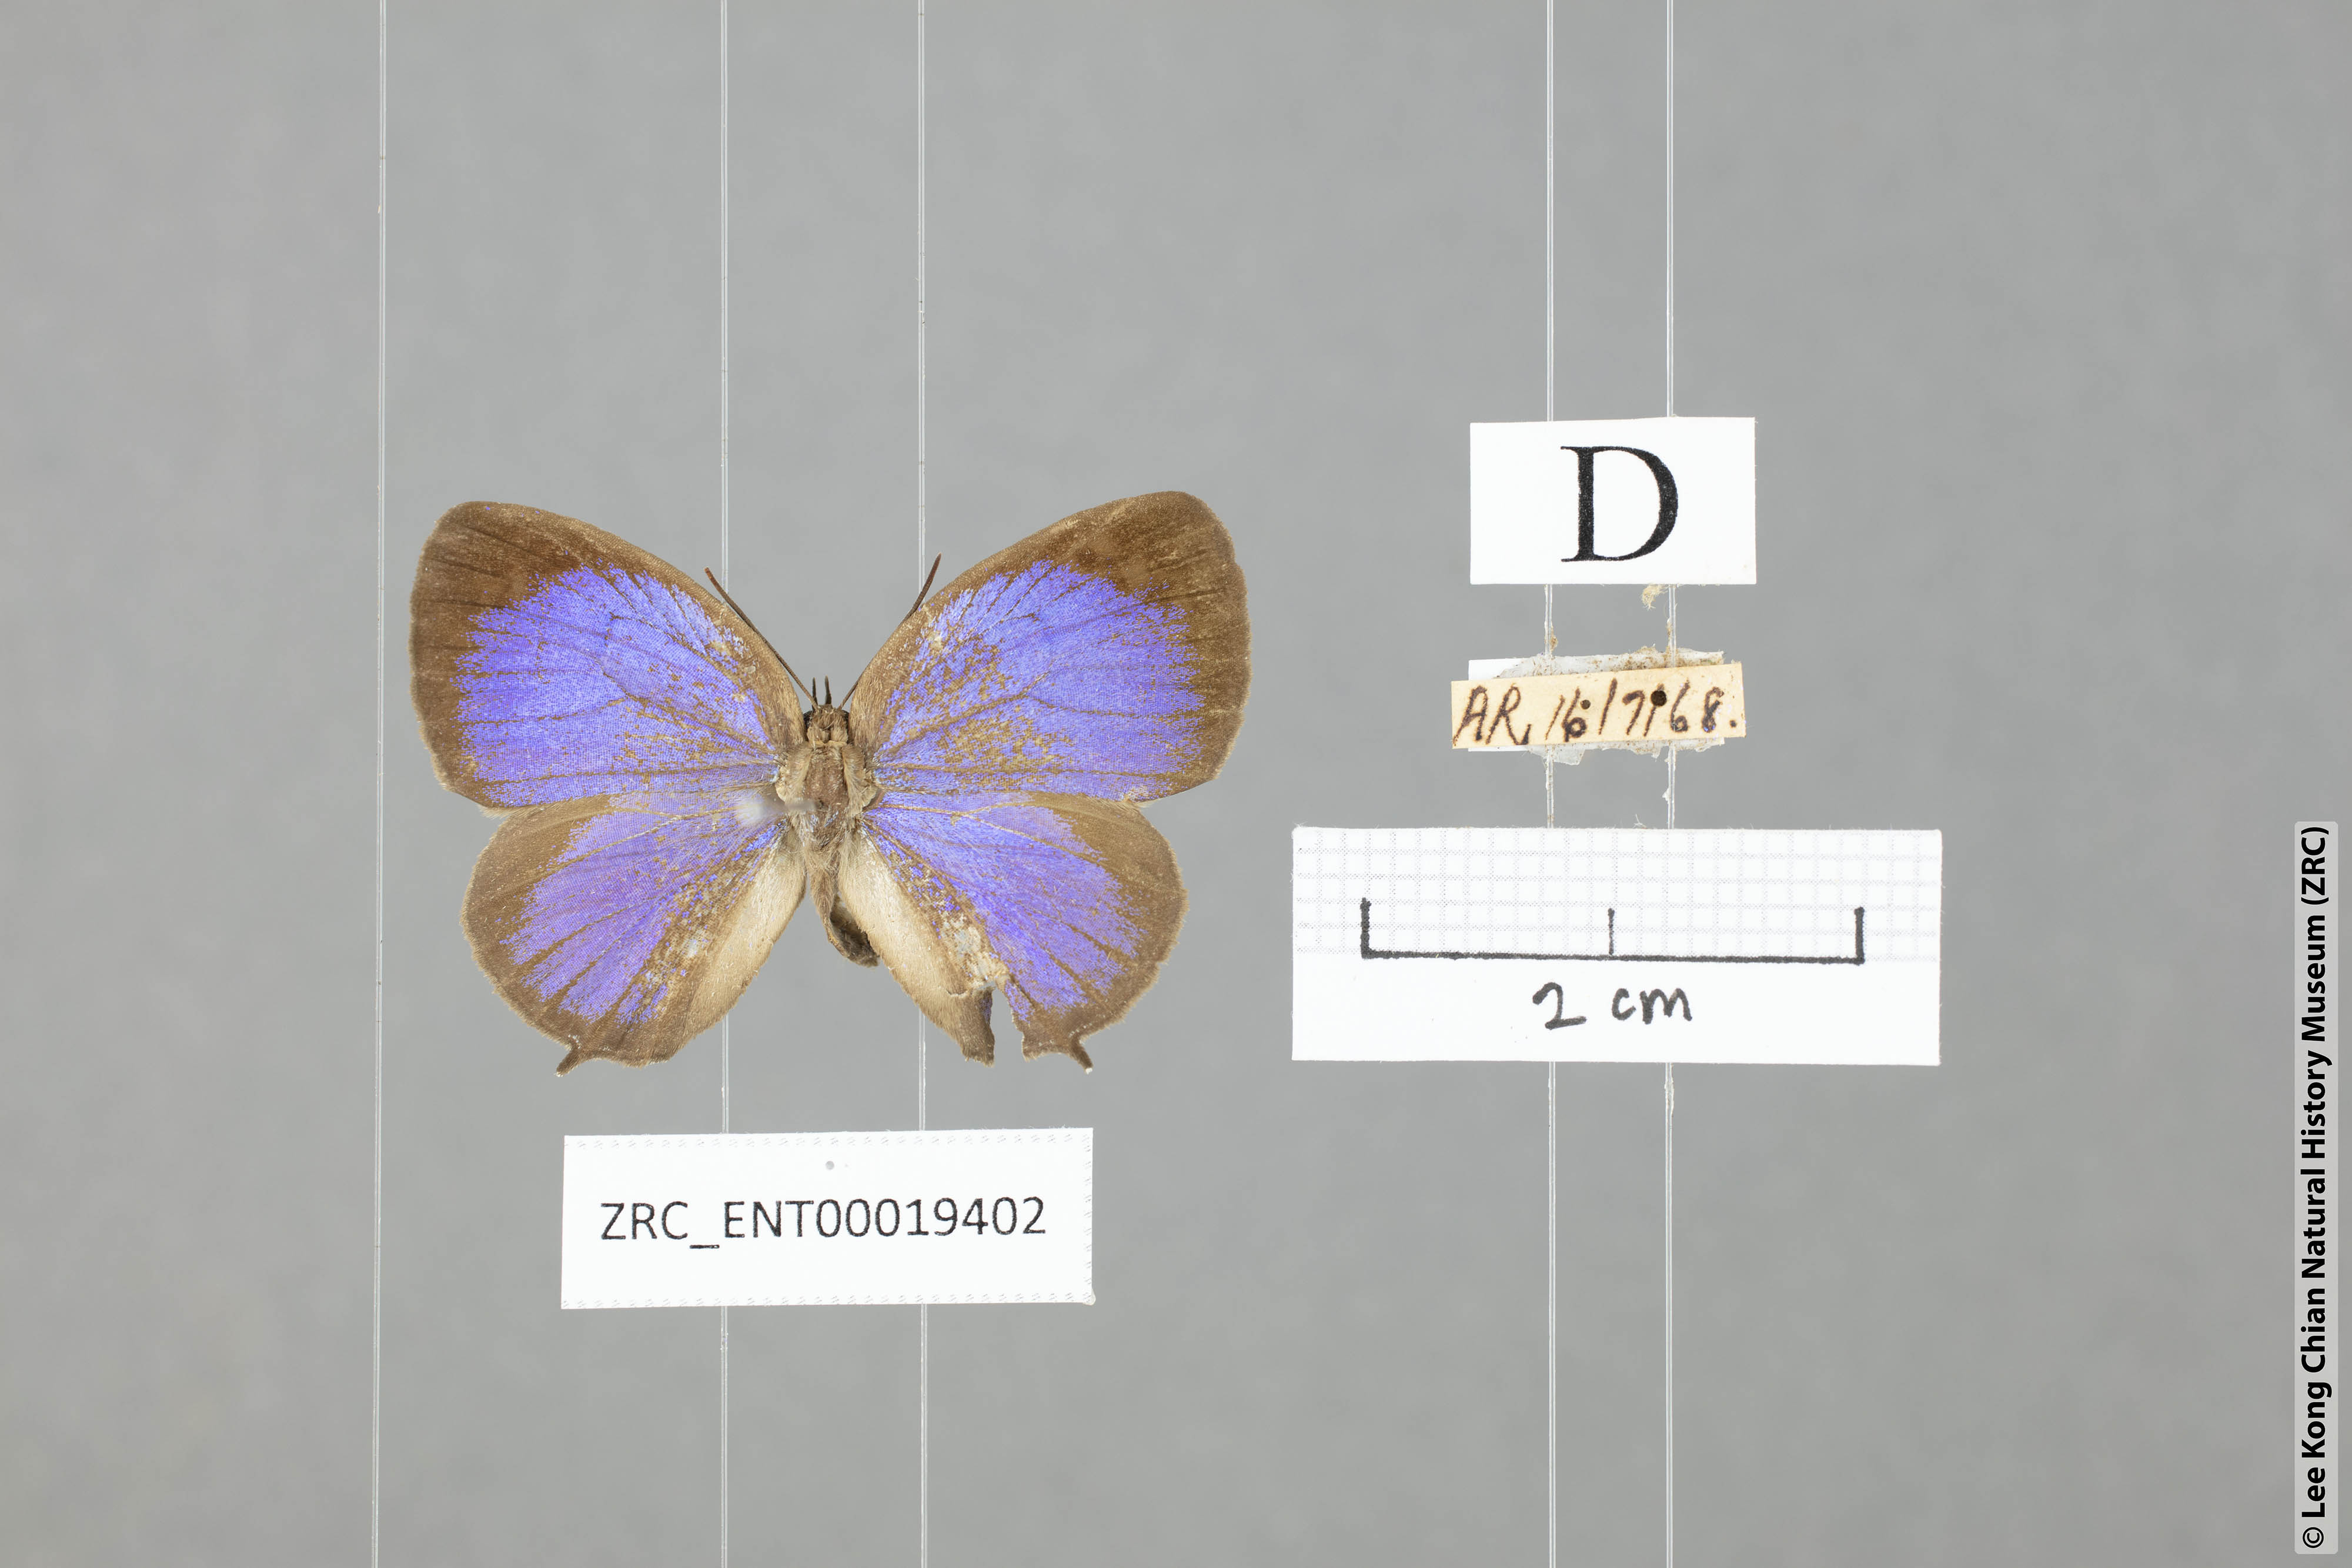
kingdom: Animalia
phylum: Arthropoda
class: Insecta
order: Lepidoptera
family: Lycaenidae
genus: Arhopala
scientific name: Arhopala democritus
